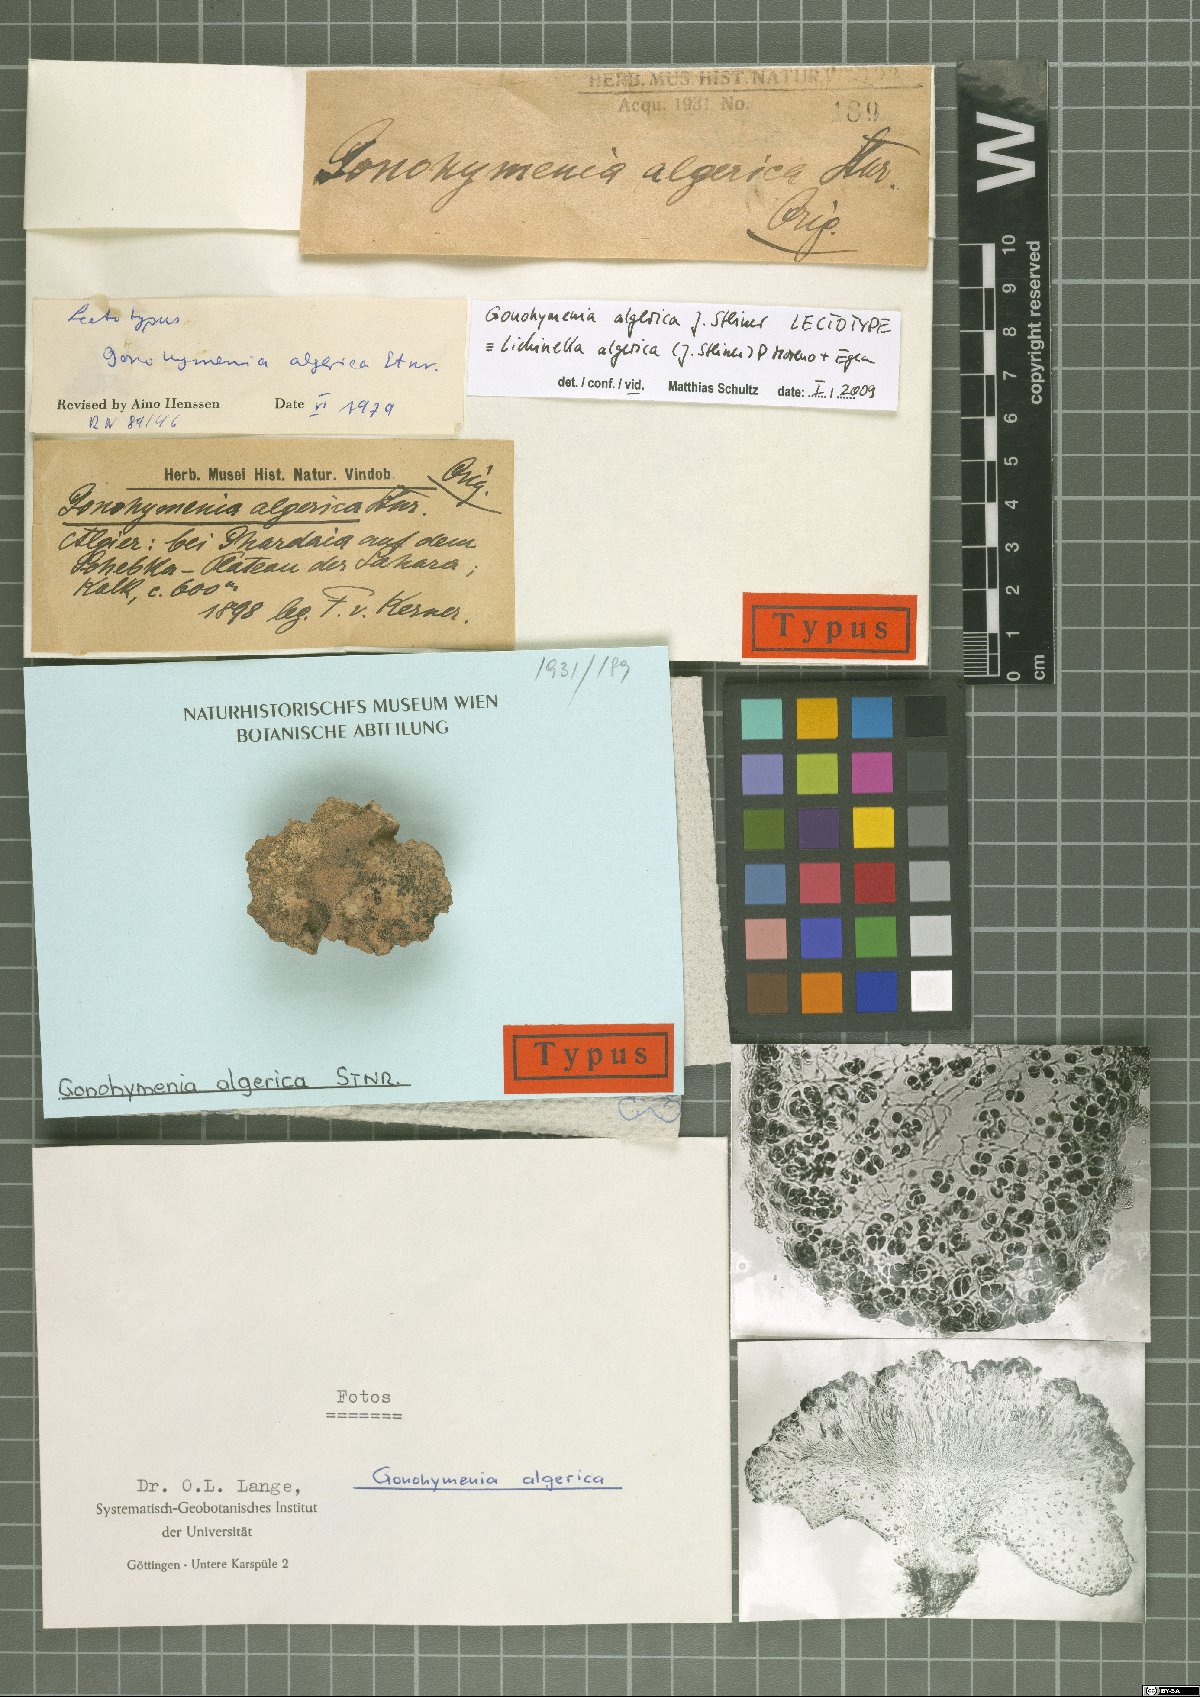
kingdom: Fungi
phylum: Ascomycota
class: Lichinomycetes
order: Lichinales
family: Lichinaceae
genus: Lichinella
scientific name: Lichinella algerica
